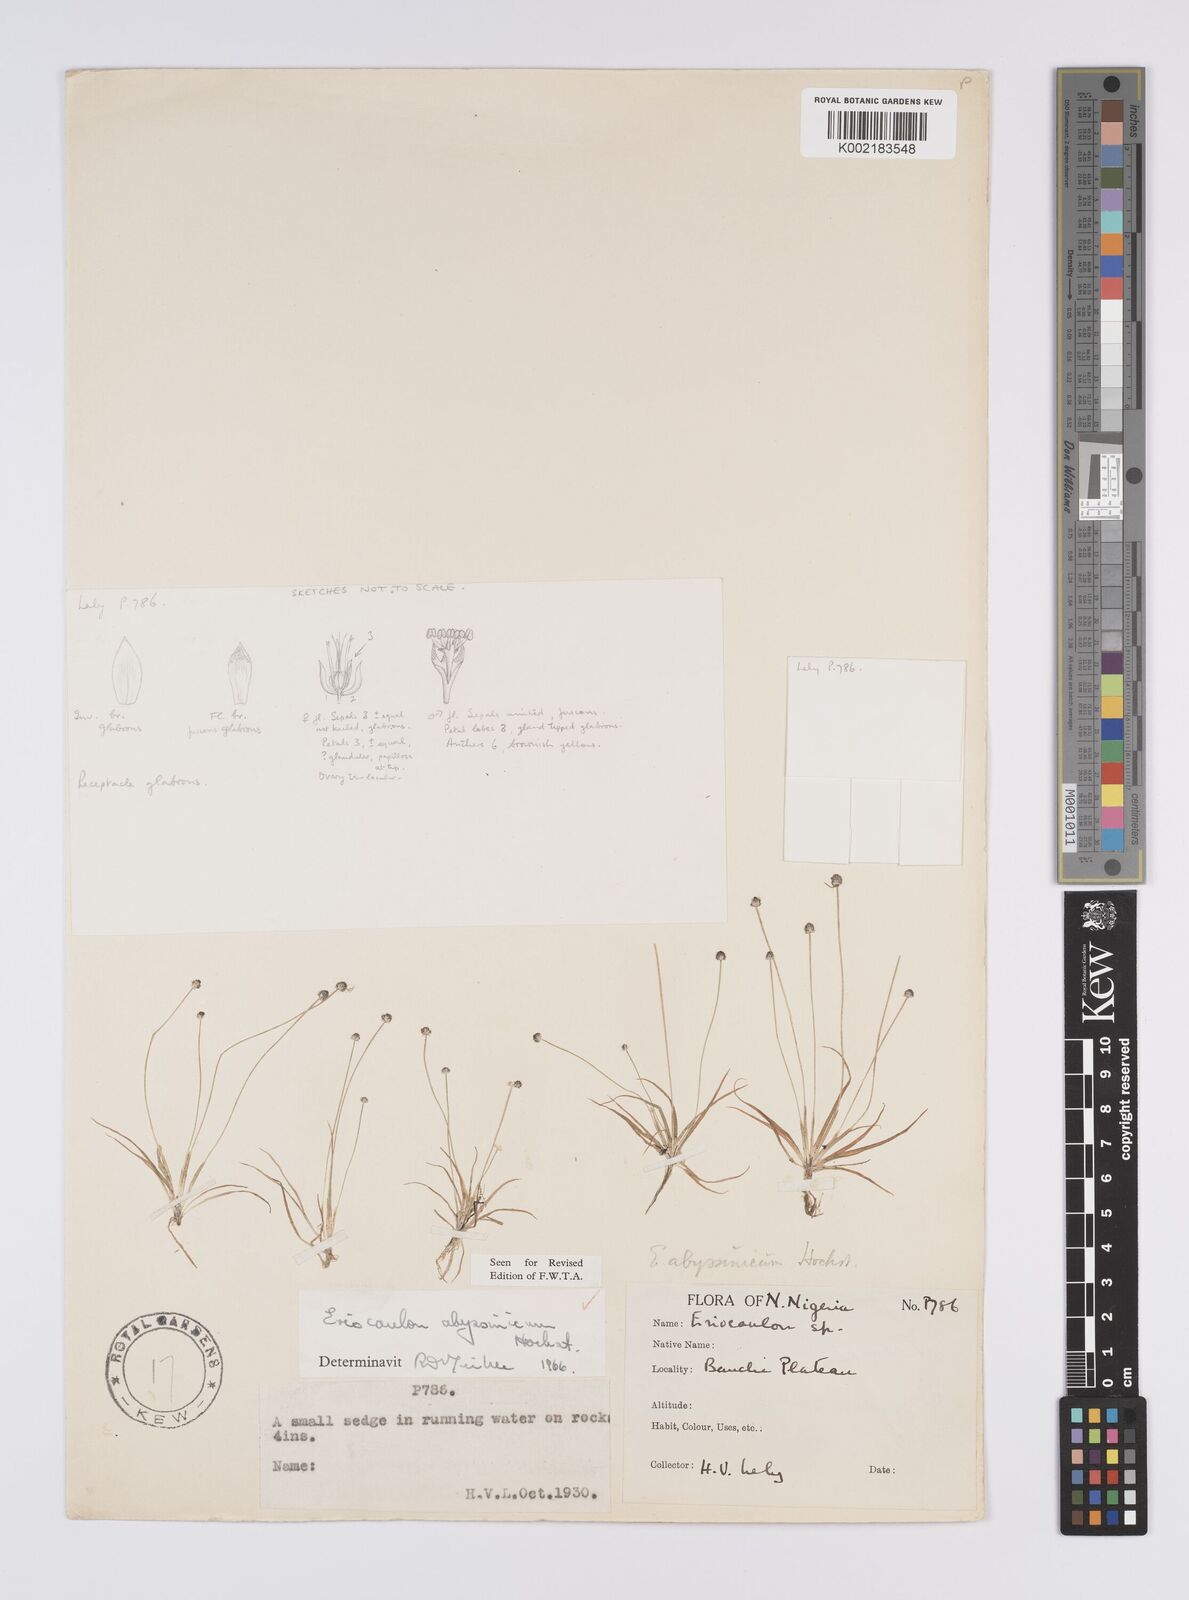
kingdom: Plantae
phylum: Tracheophyta
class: Liliopsida
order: Poales
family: Eriocaulaceae
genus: Eriocaulon
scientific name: Eriocaulon abyssinicum
